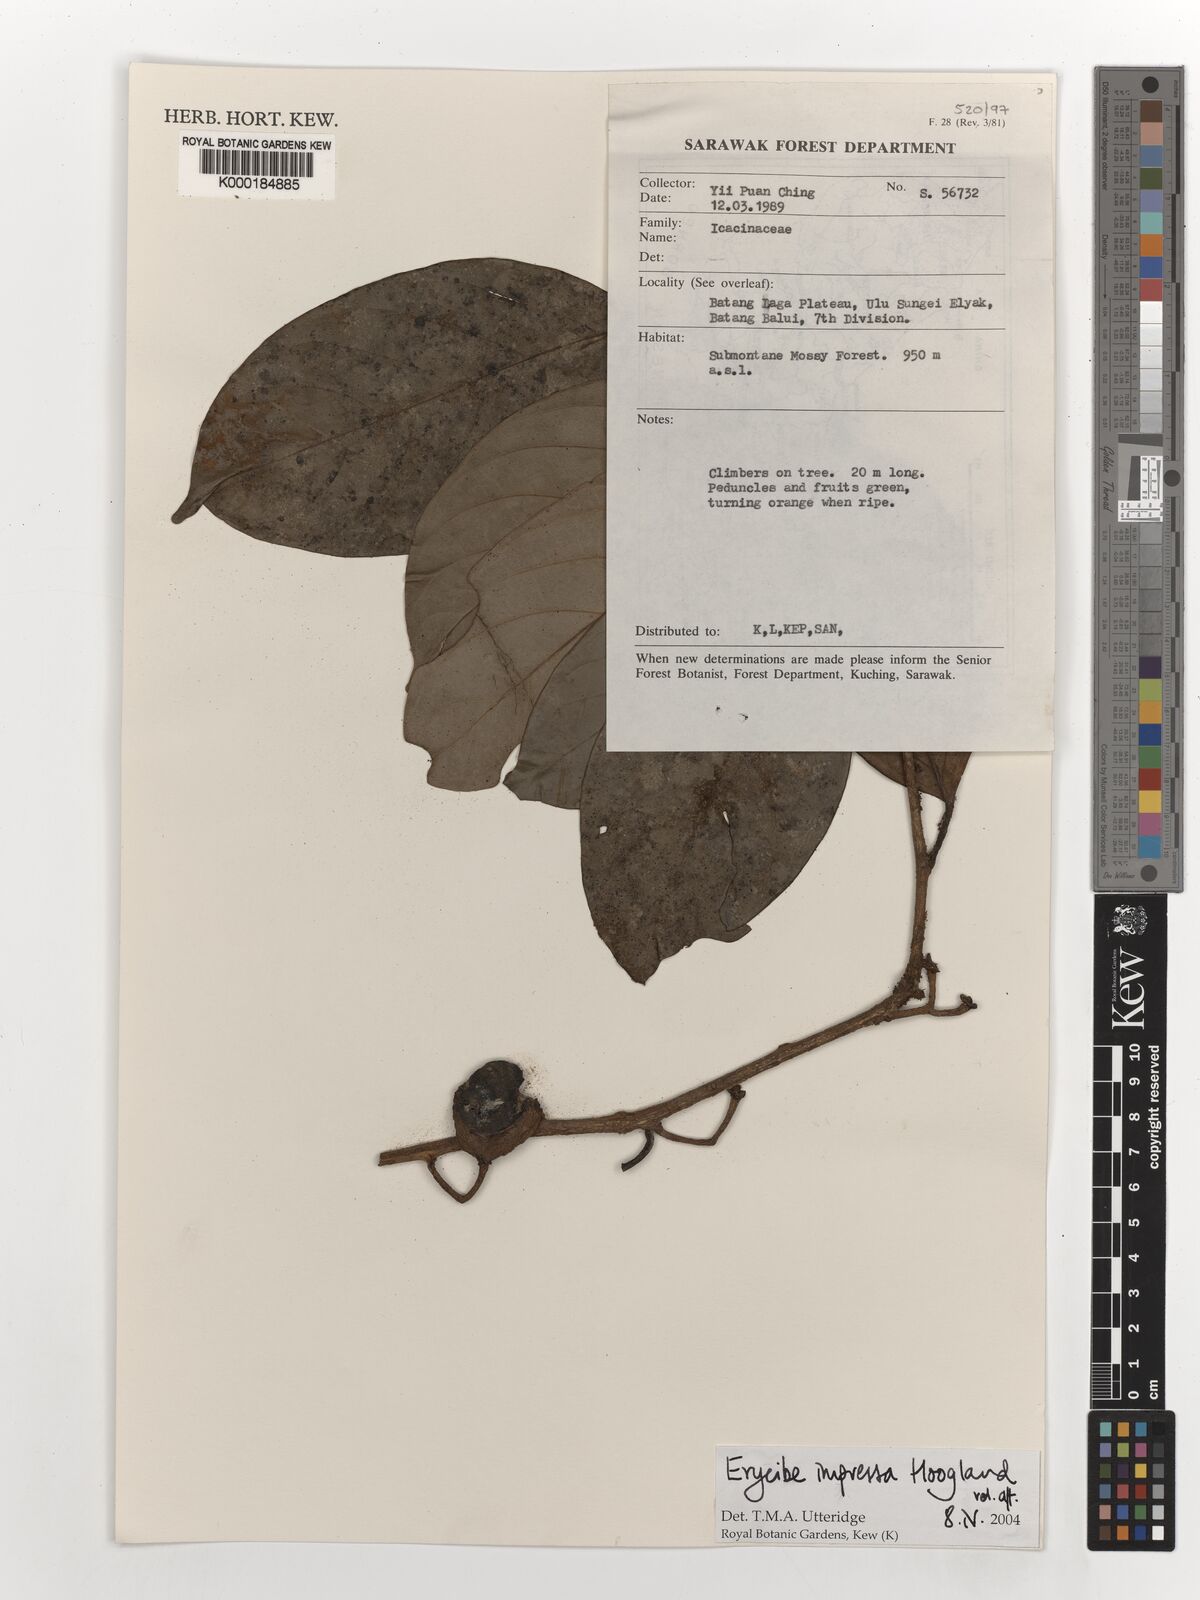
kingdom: Plantae
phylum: Tracheophyta
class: Magnoliopsida
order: Solanales
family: Convolvulaceae
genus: Erycibe
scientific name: Erycibe
